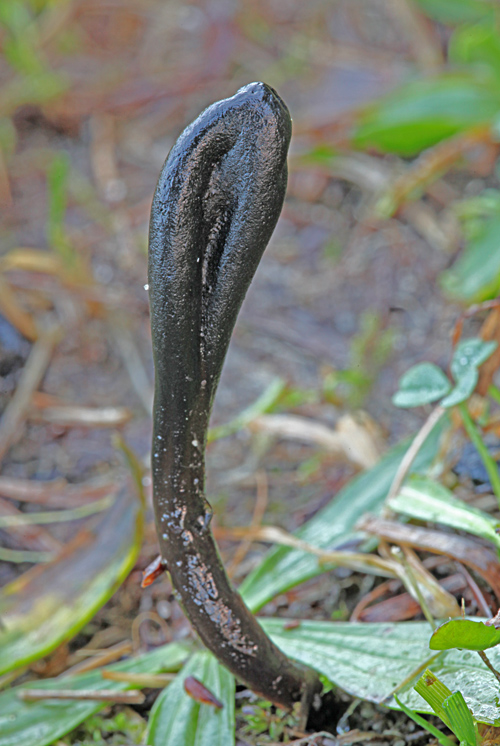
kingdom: Fungi
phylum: Ascomycota
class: Geoglossomycetes
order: Geoglossales
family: Geoglossaceae
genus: Glutinoglossum
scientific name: Glutinoglossum glutinosum
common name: slimet jordtunge
